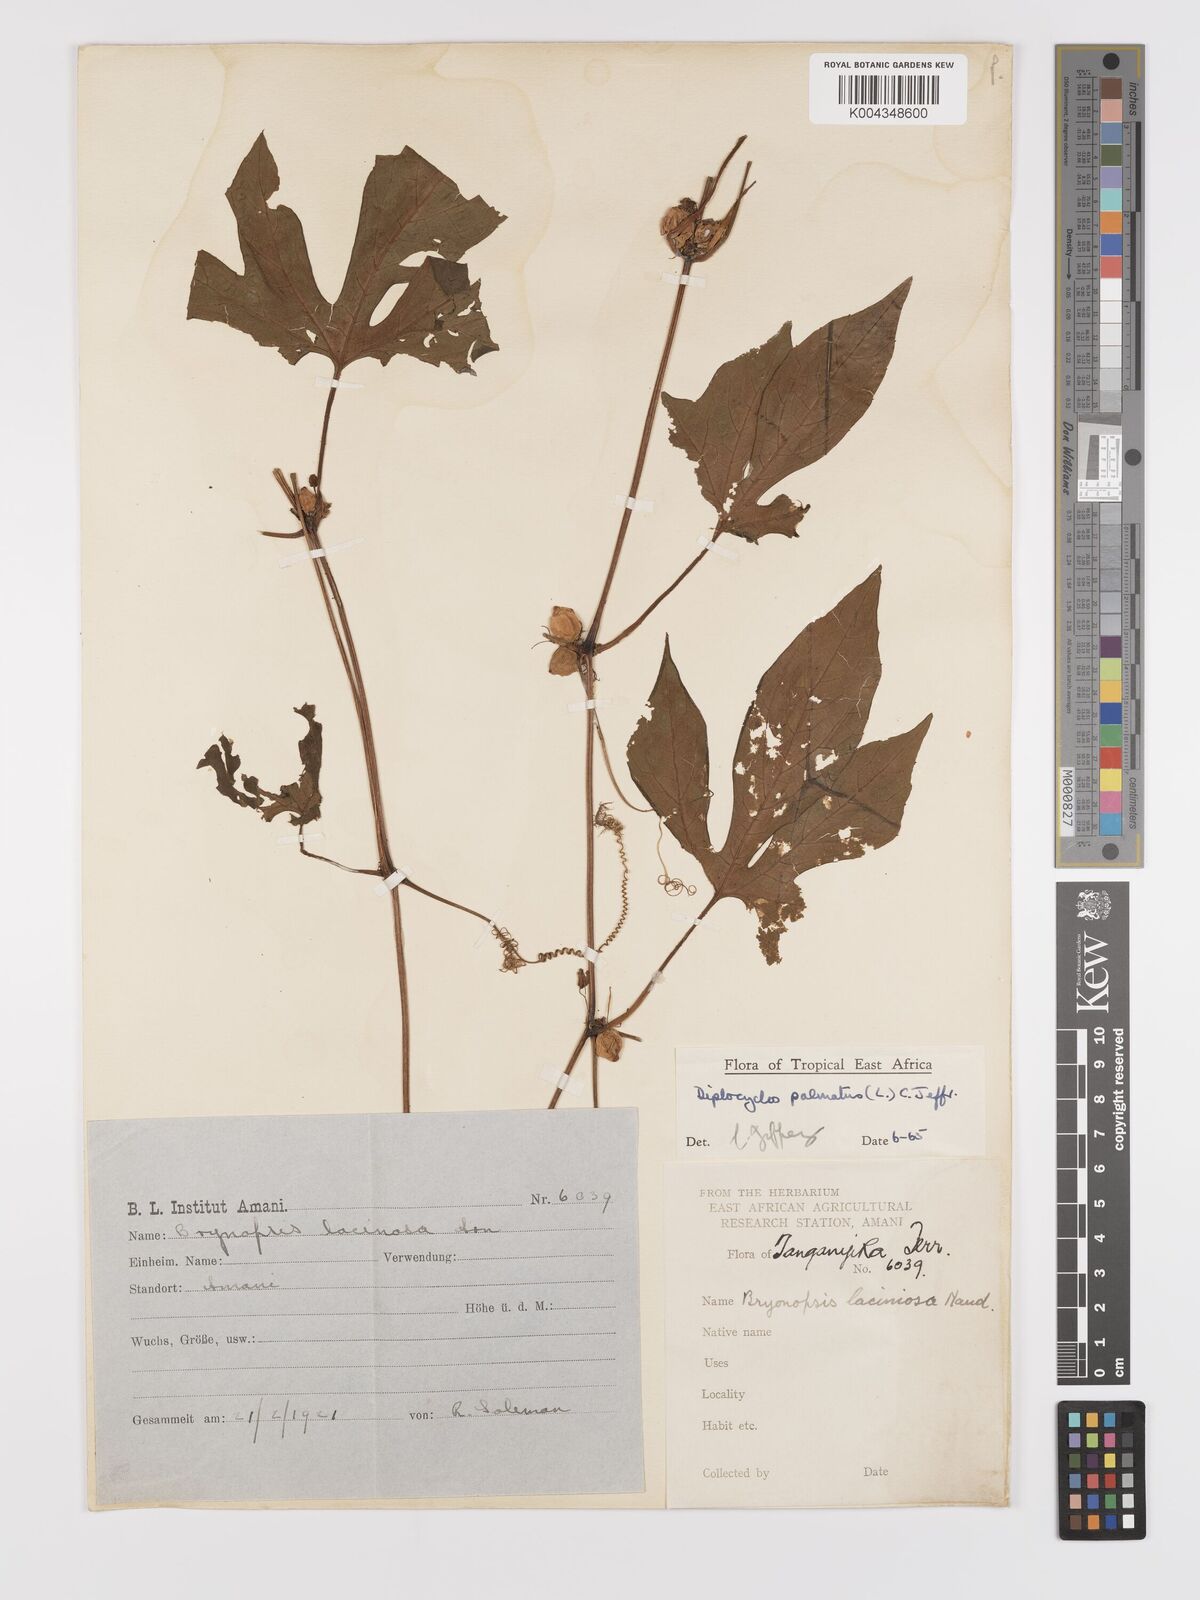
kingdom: Plantae
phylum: Tracheophyta
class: Magnoliopsida
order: Cucurbitales
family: Cucurbitaceae
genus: Diplocyclos
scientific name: Diplocyclos palmatus
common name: Striped-cucumber
